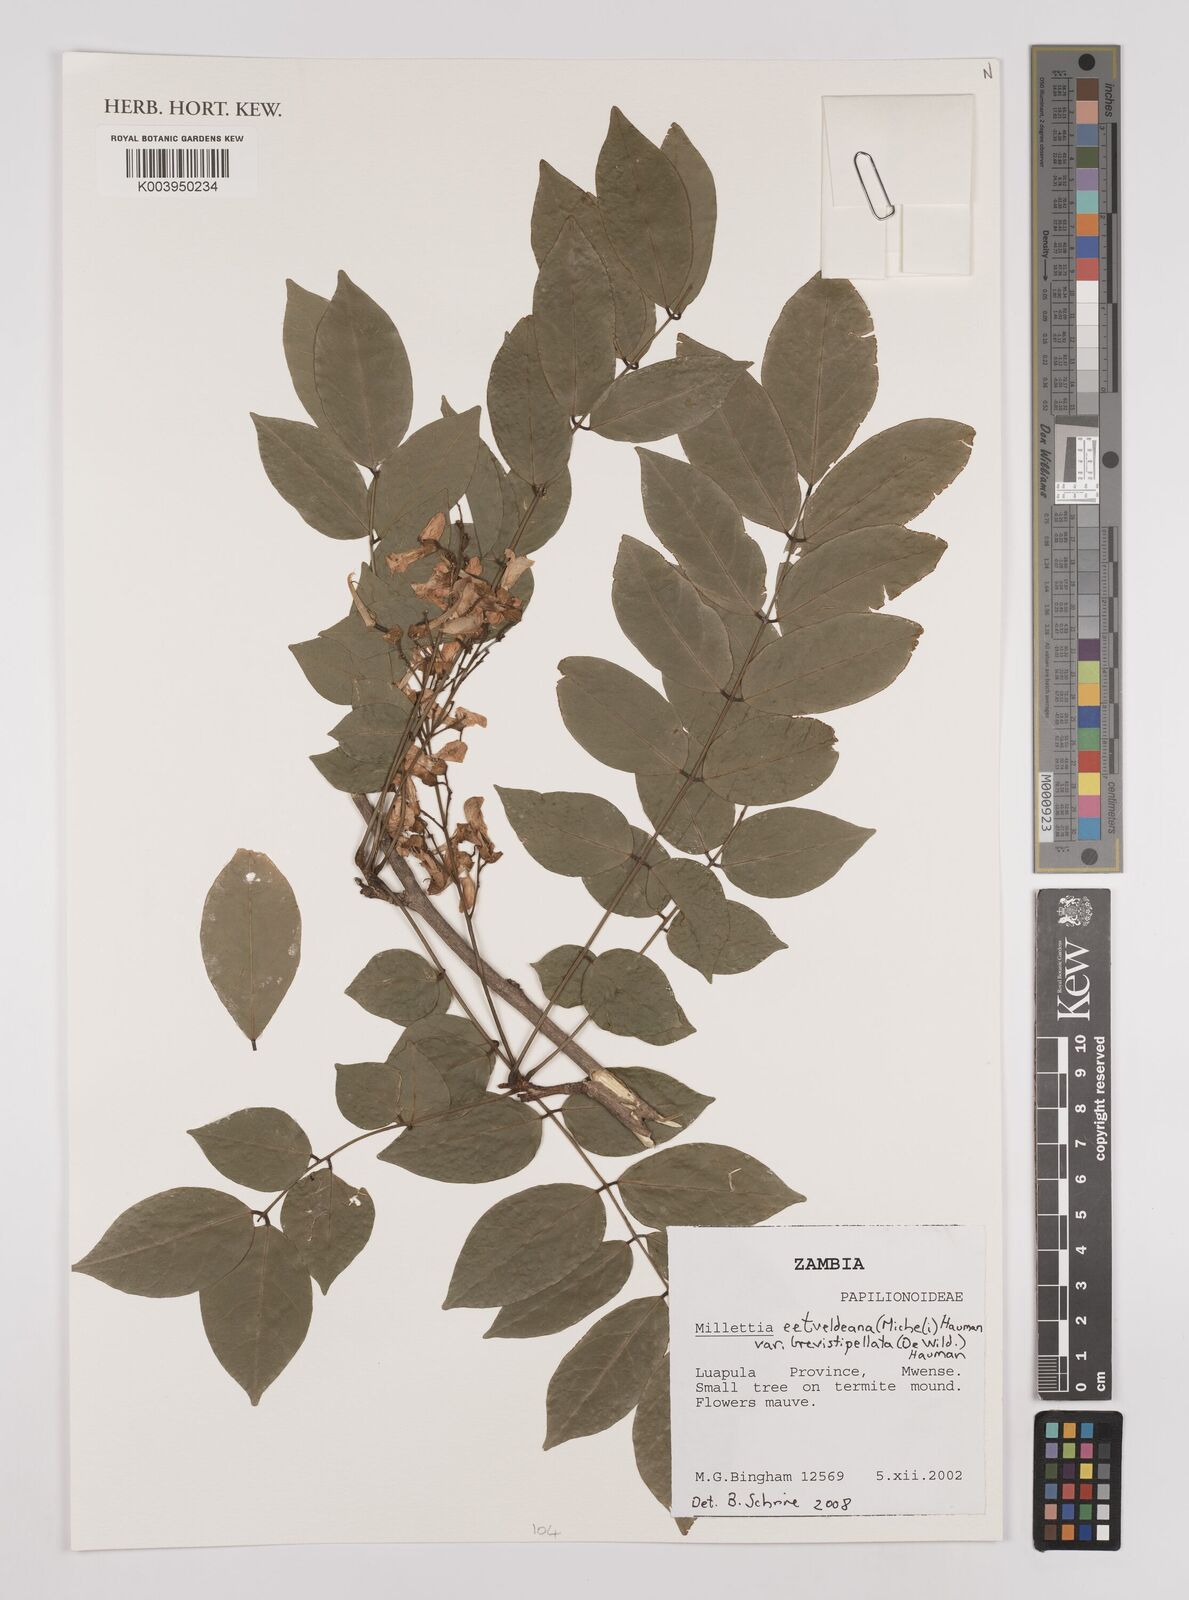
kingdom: Plantae
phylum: Tracheophyta
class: Magnoliopsida
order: Fabales
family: Fabaceae
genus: Millettia
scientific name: Millettia eetveldeana
